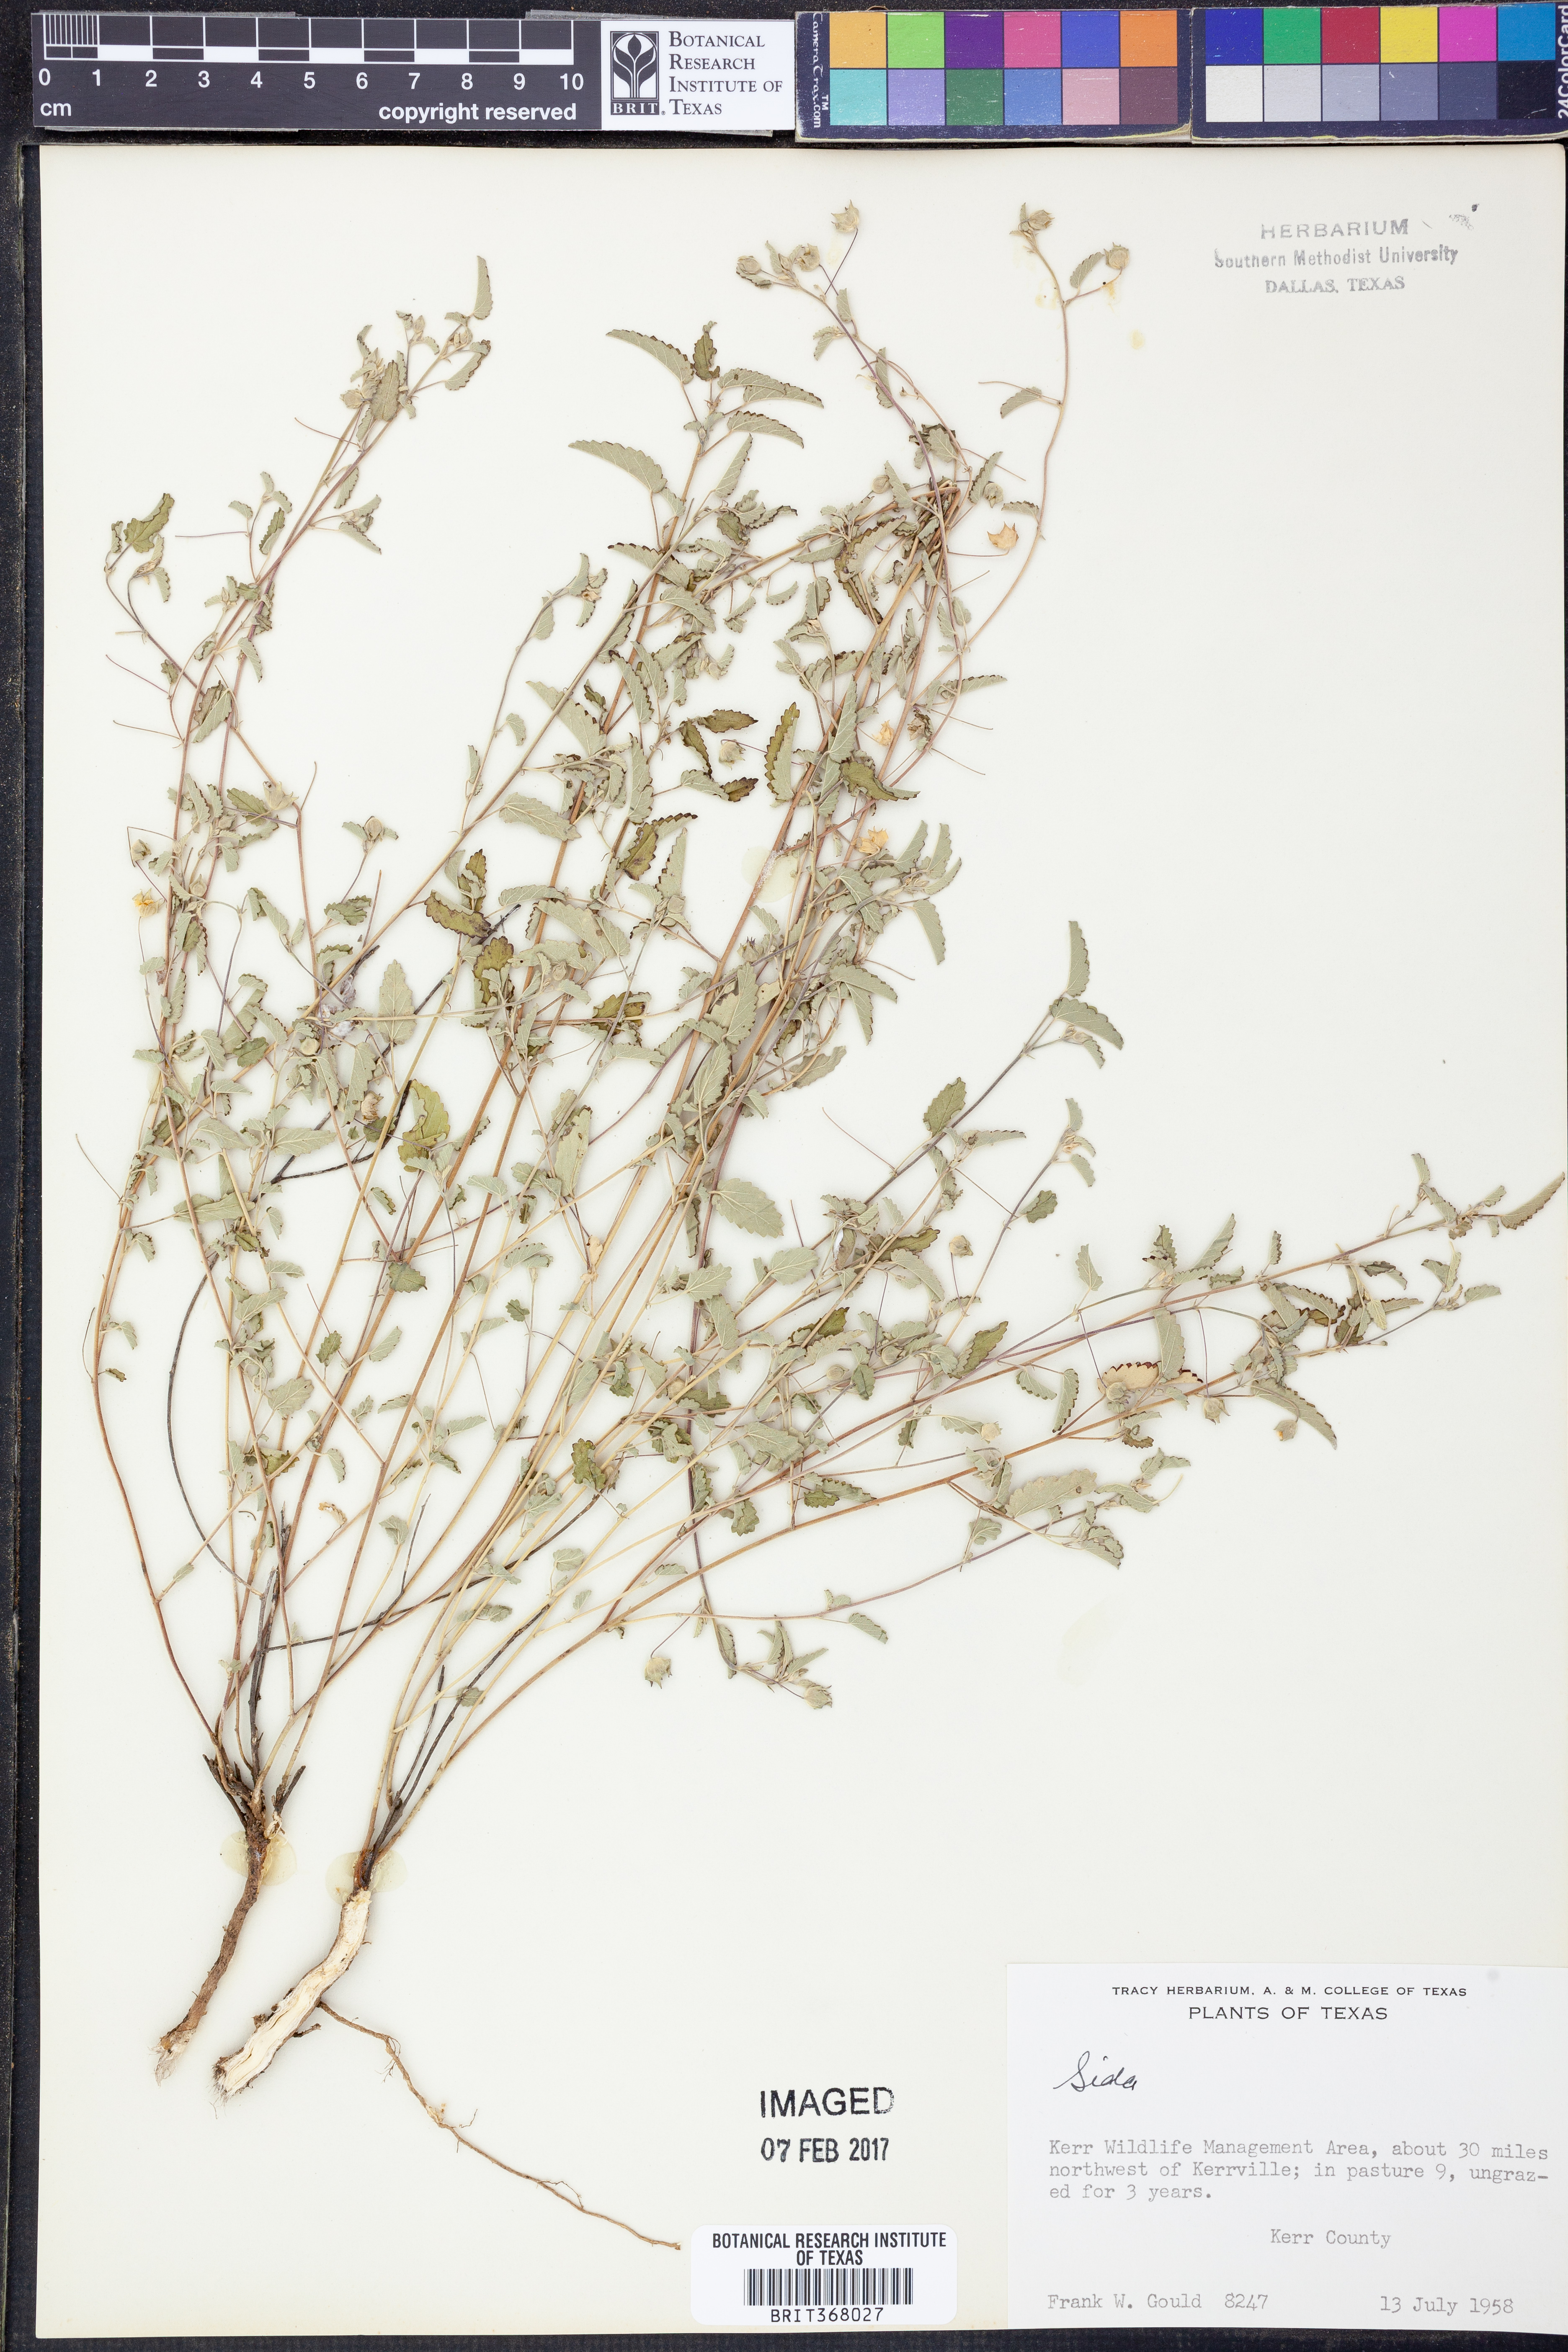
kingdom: Plantae
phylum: Tracheophyta
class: Magnoliopsida
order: Malvales
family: Malvaceae
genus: Sida
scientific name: Sida
